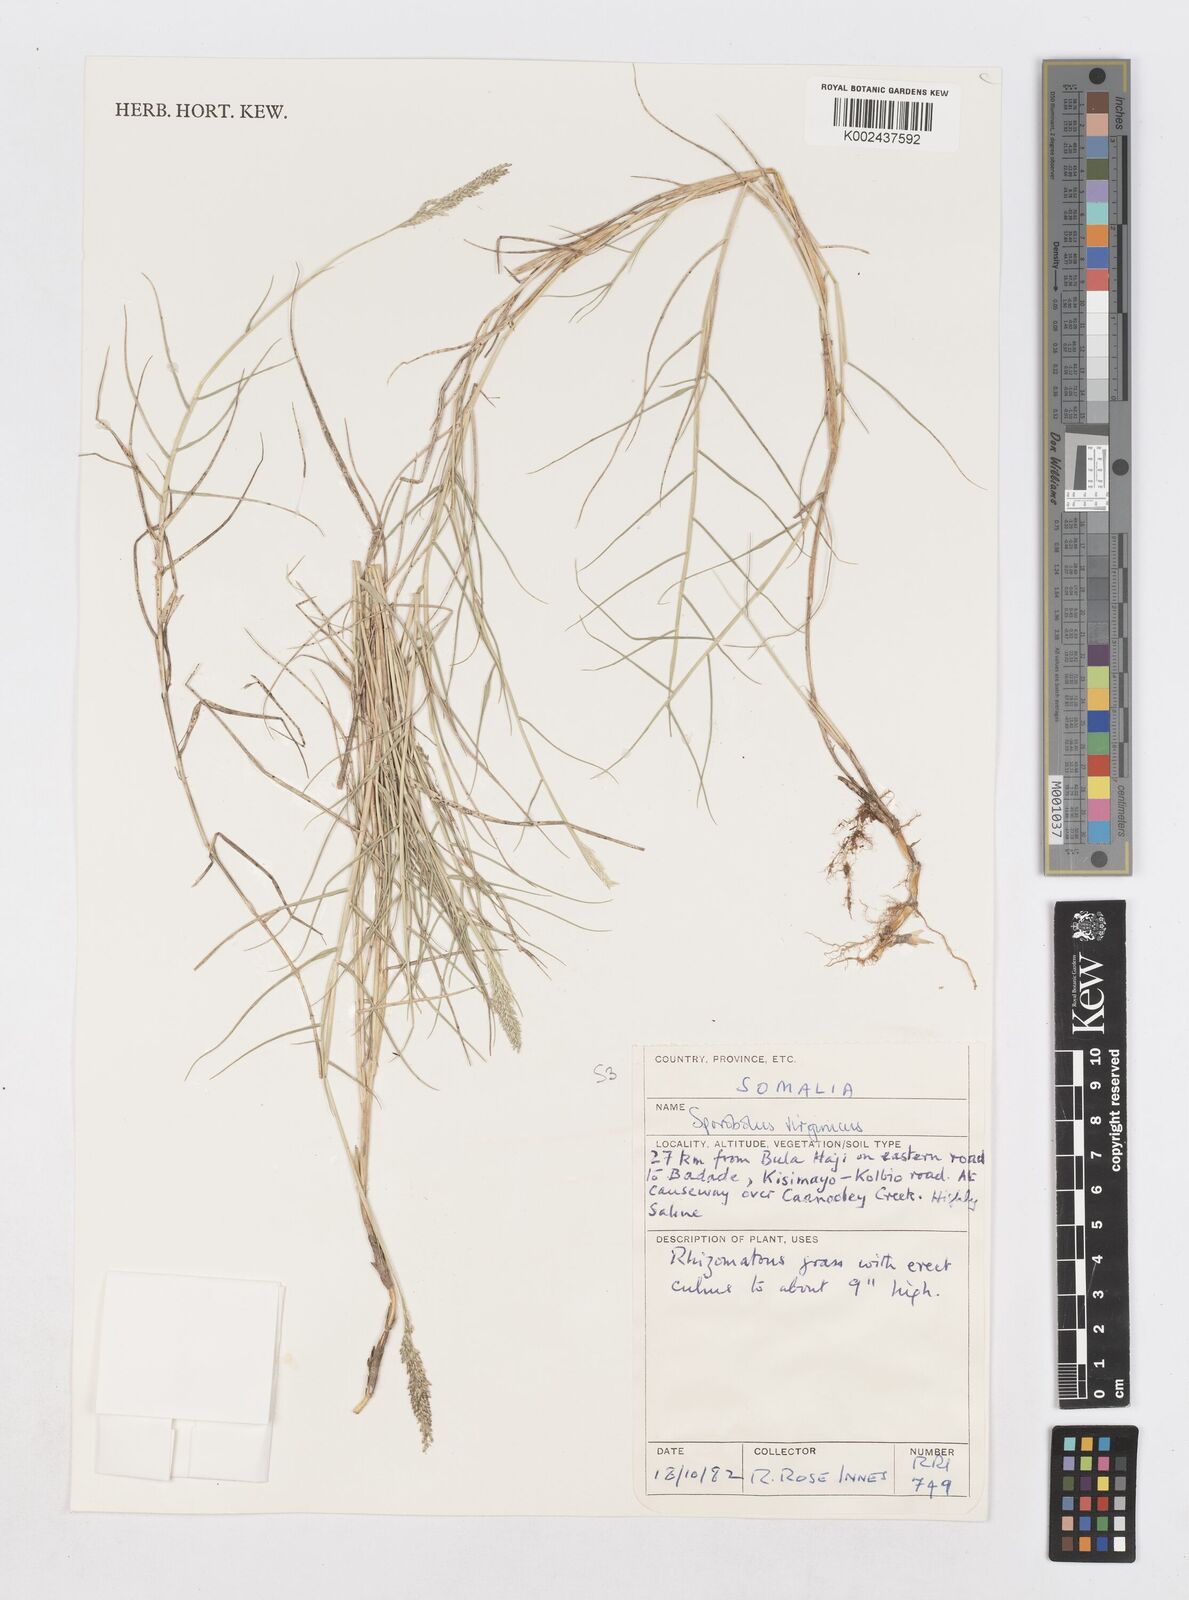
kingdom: Plantae
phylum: Tracheophyta
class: Liliopsida
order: Poales
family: Poaceae
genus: Sporobolus
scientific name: Sporobolus virginicus
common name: Beach dropseed
